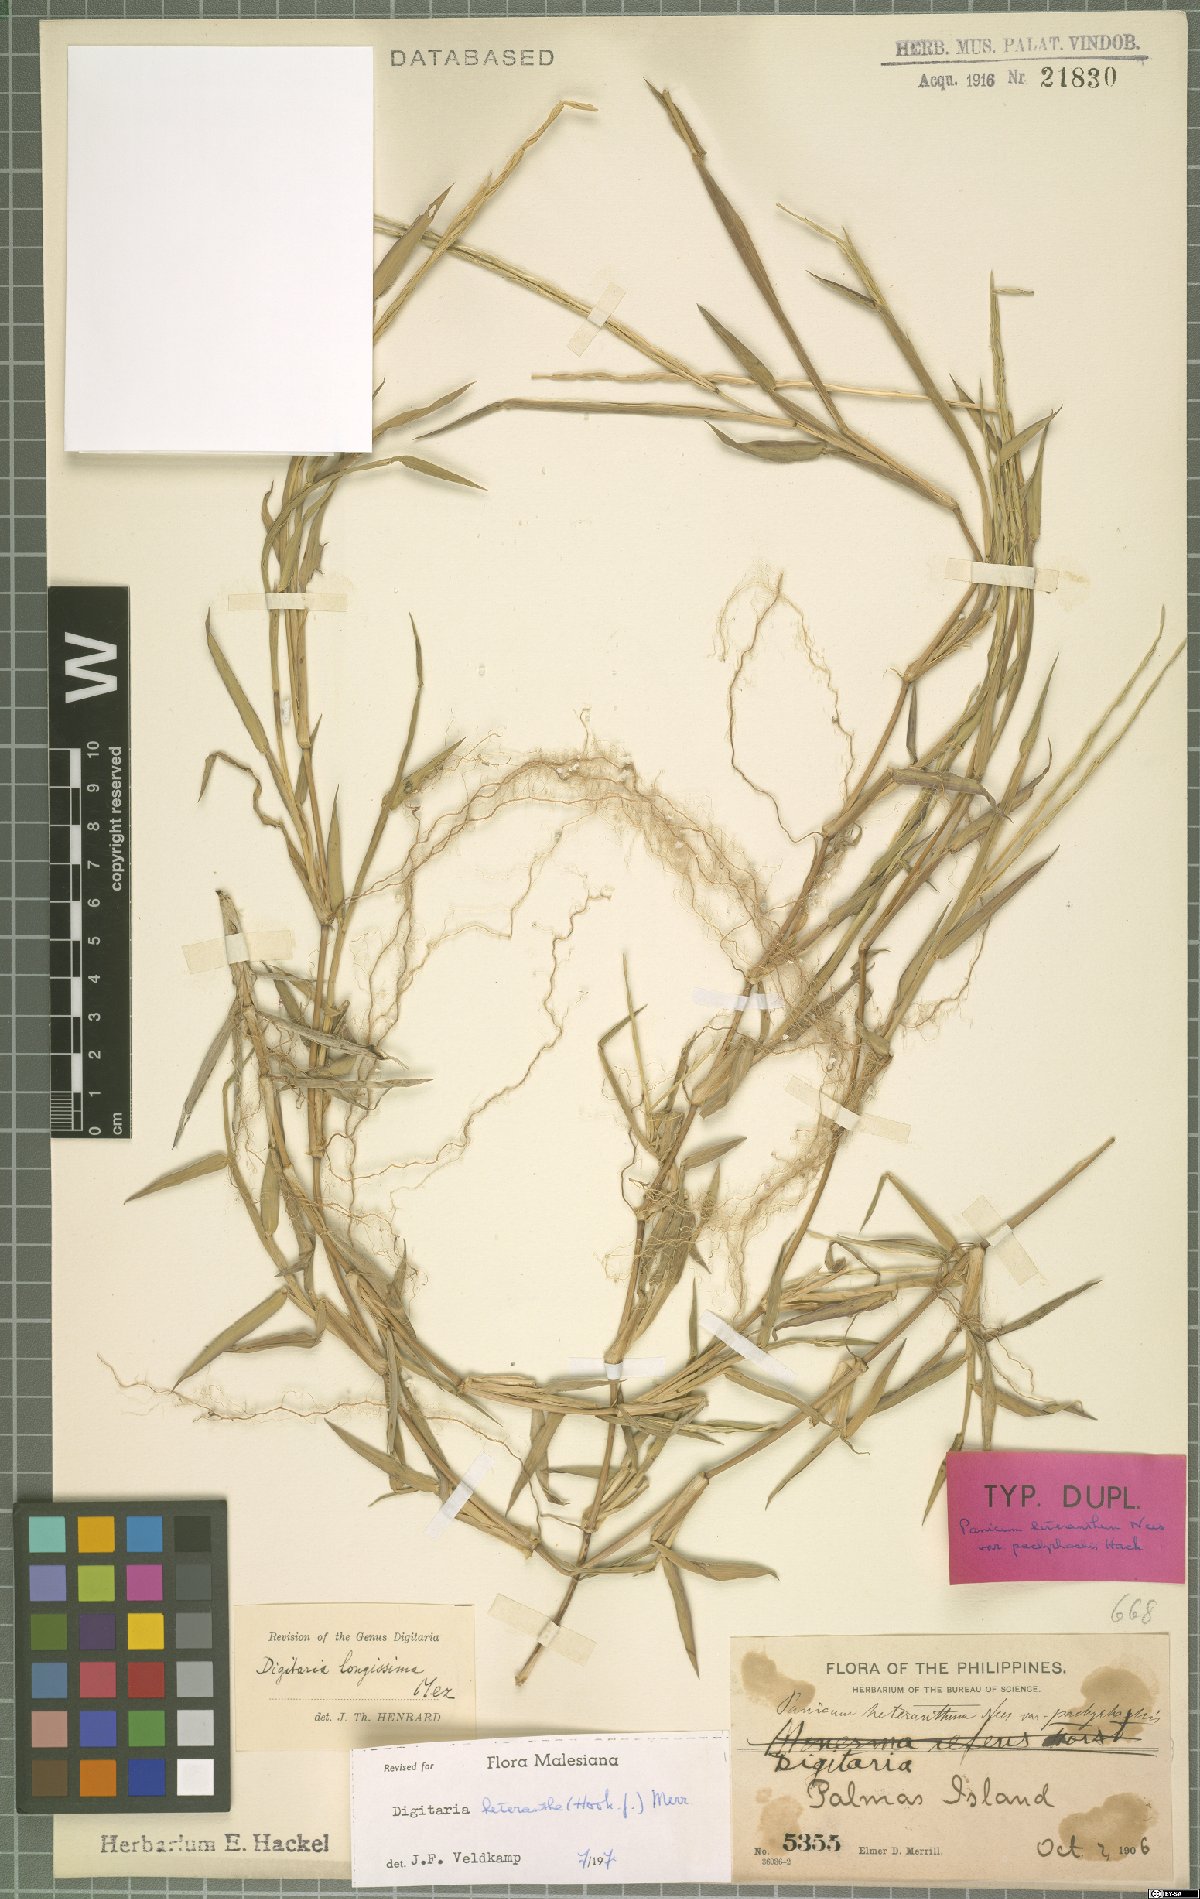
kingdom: Plantae
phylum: Tracheophyta
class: Liliopsida
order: Poales
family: Poaceae
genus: Digitaria
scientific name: Digitaria heterantha
